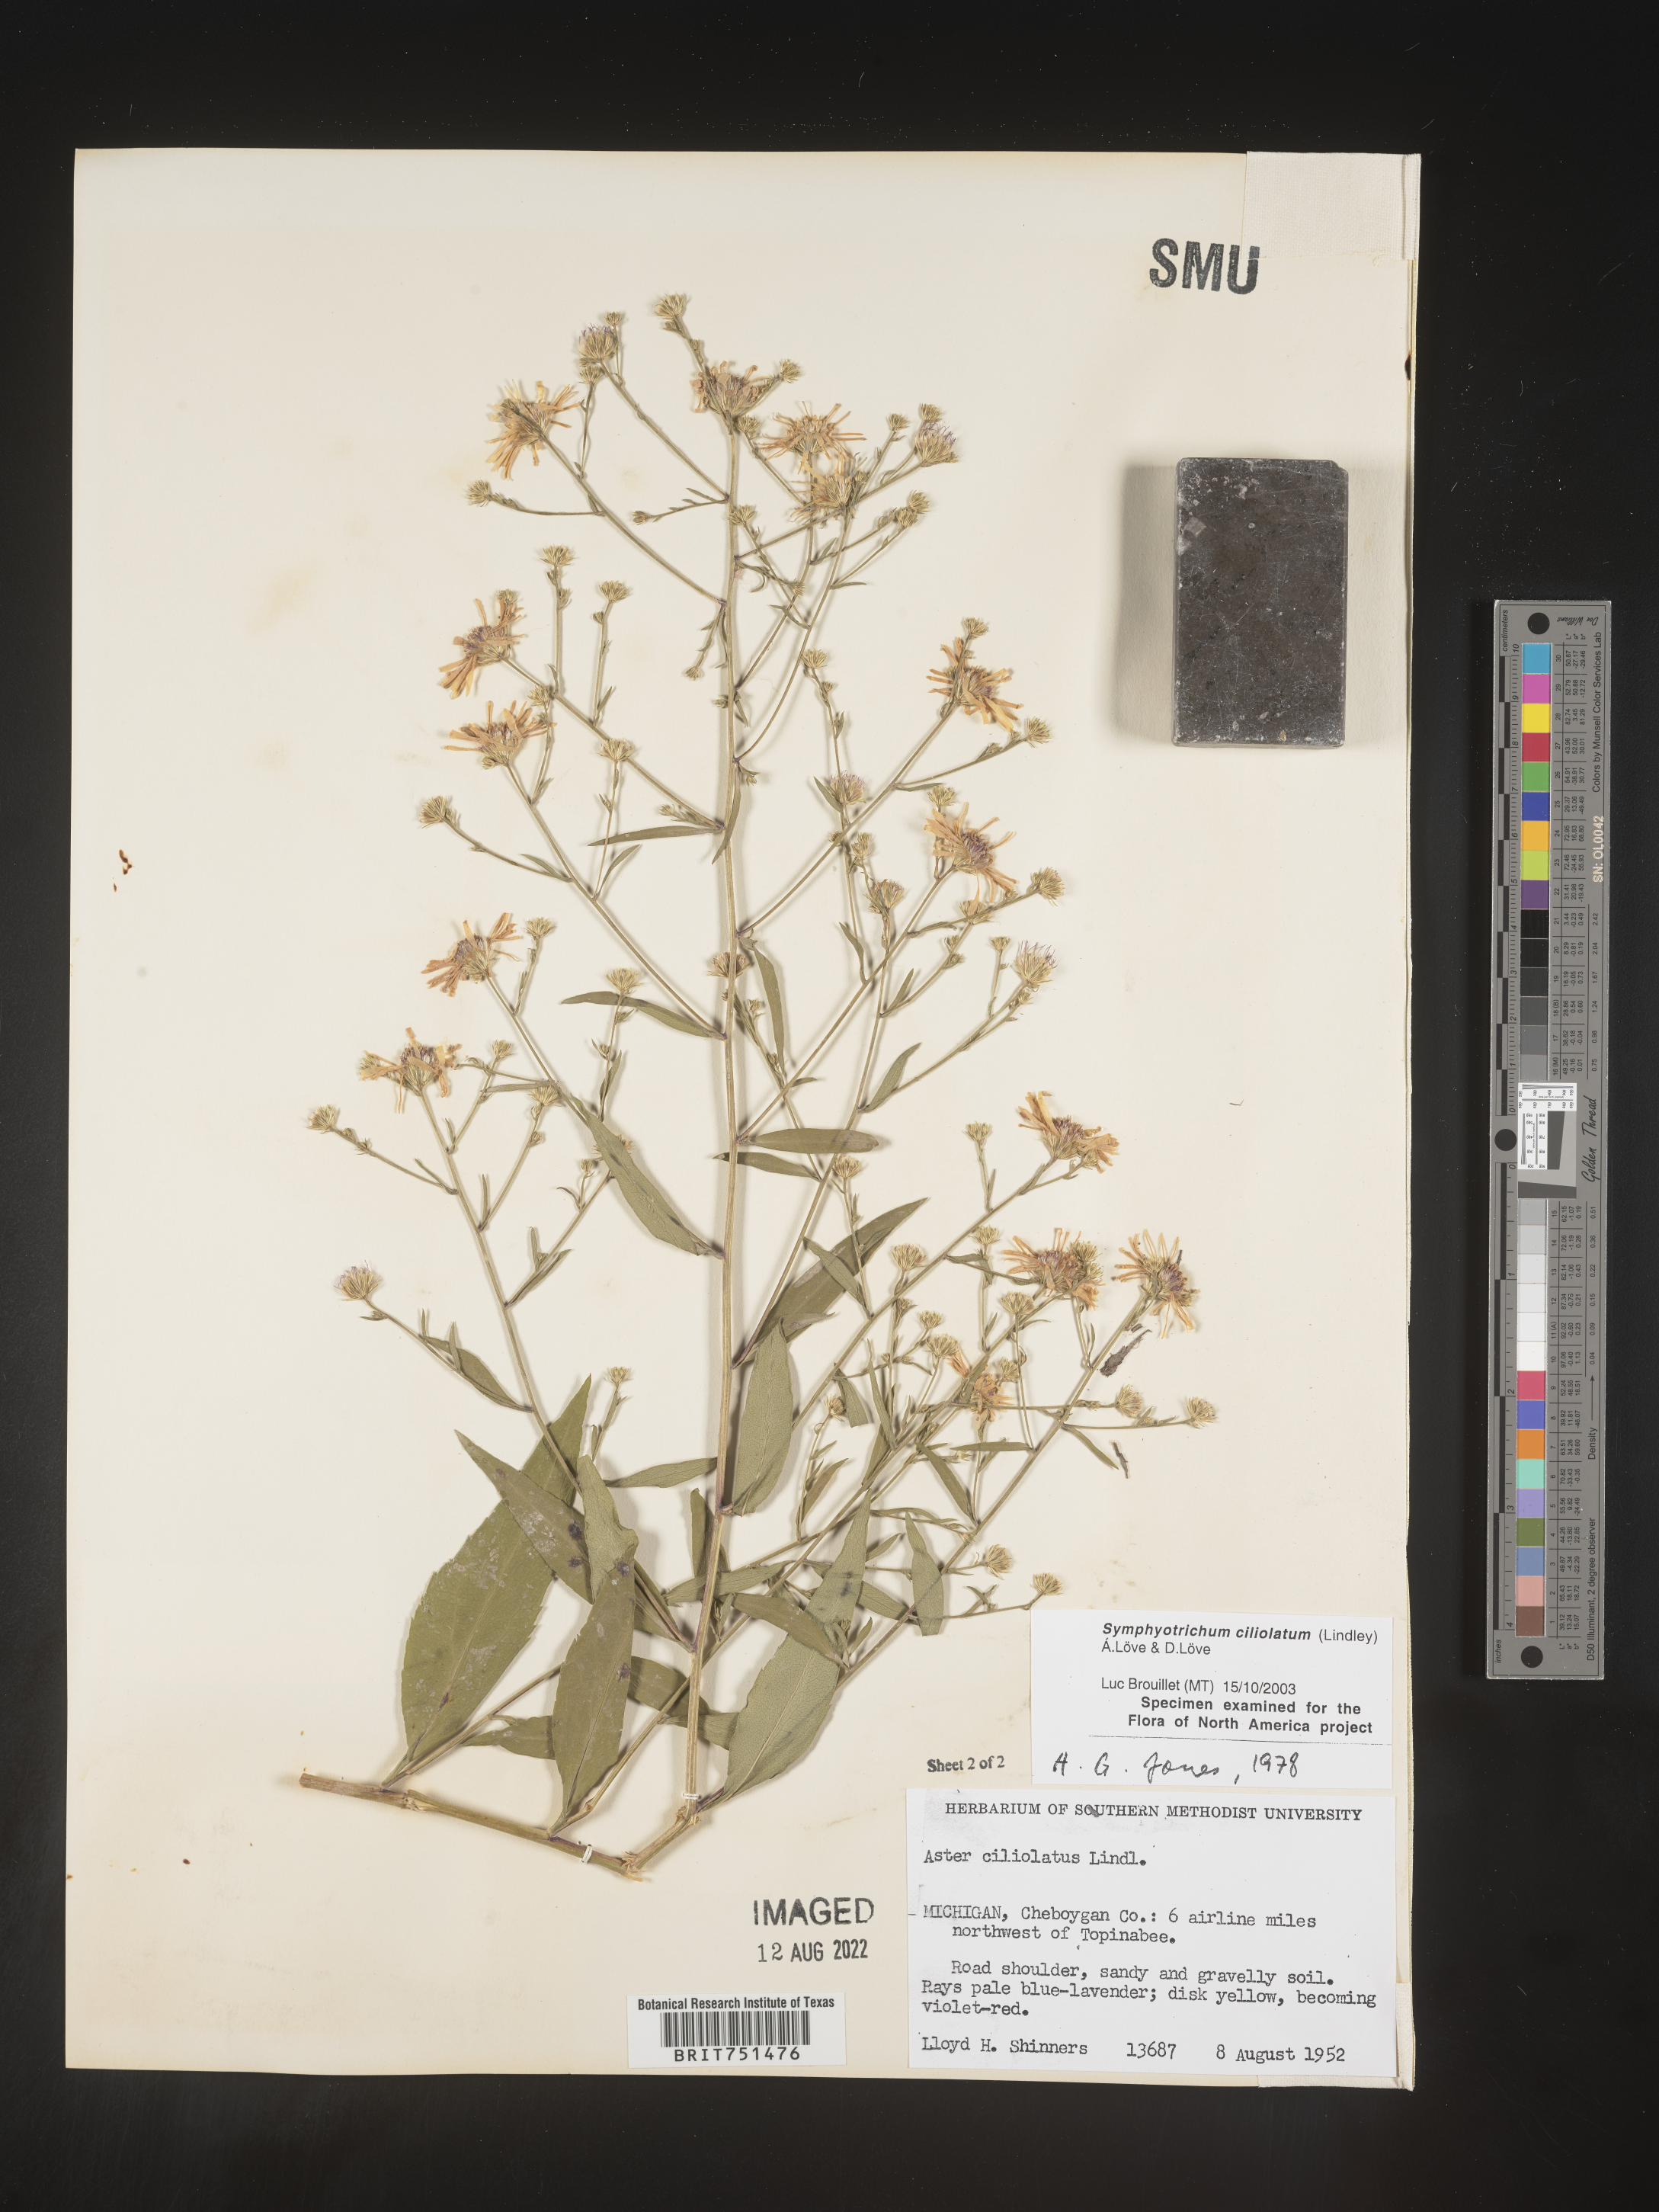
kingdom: Plantae
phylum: Tracheophyta
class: Magnoliopsida
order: Asterales
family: Asteraceae
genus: Symphyotrichum
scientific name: Symphyotrichum ciliolatum
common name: Fringed blue aster
